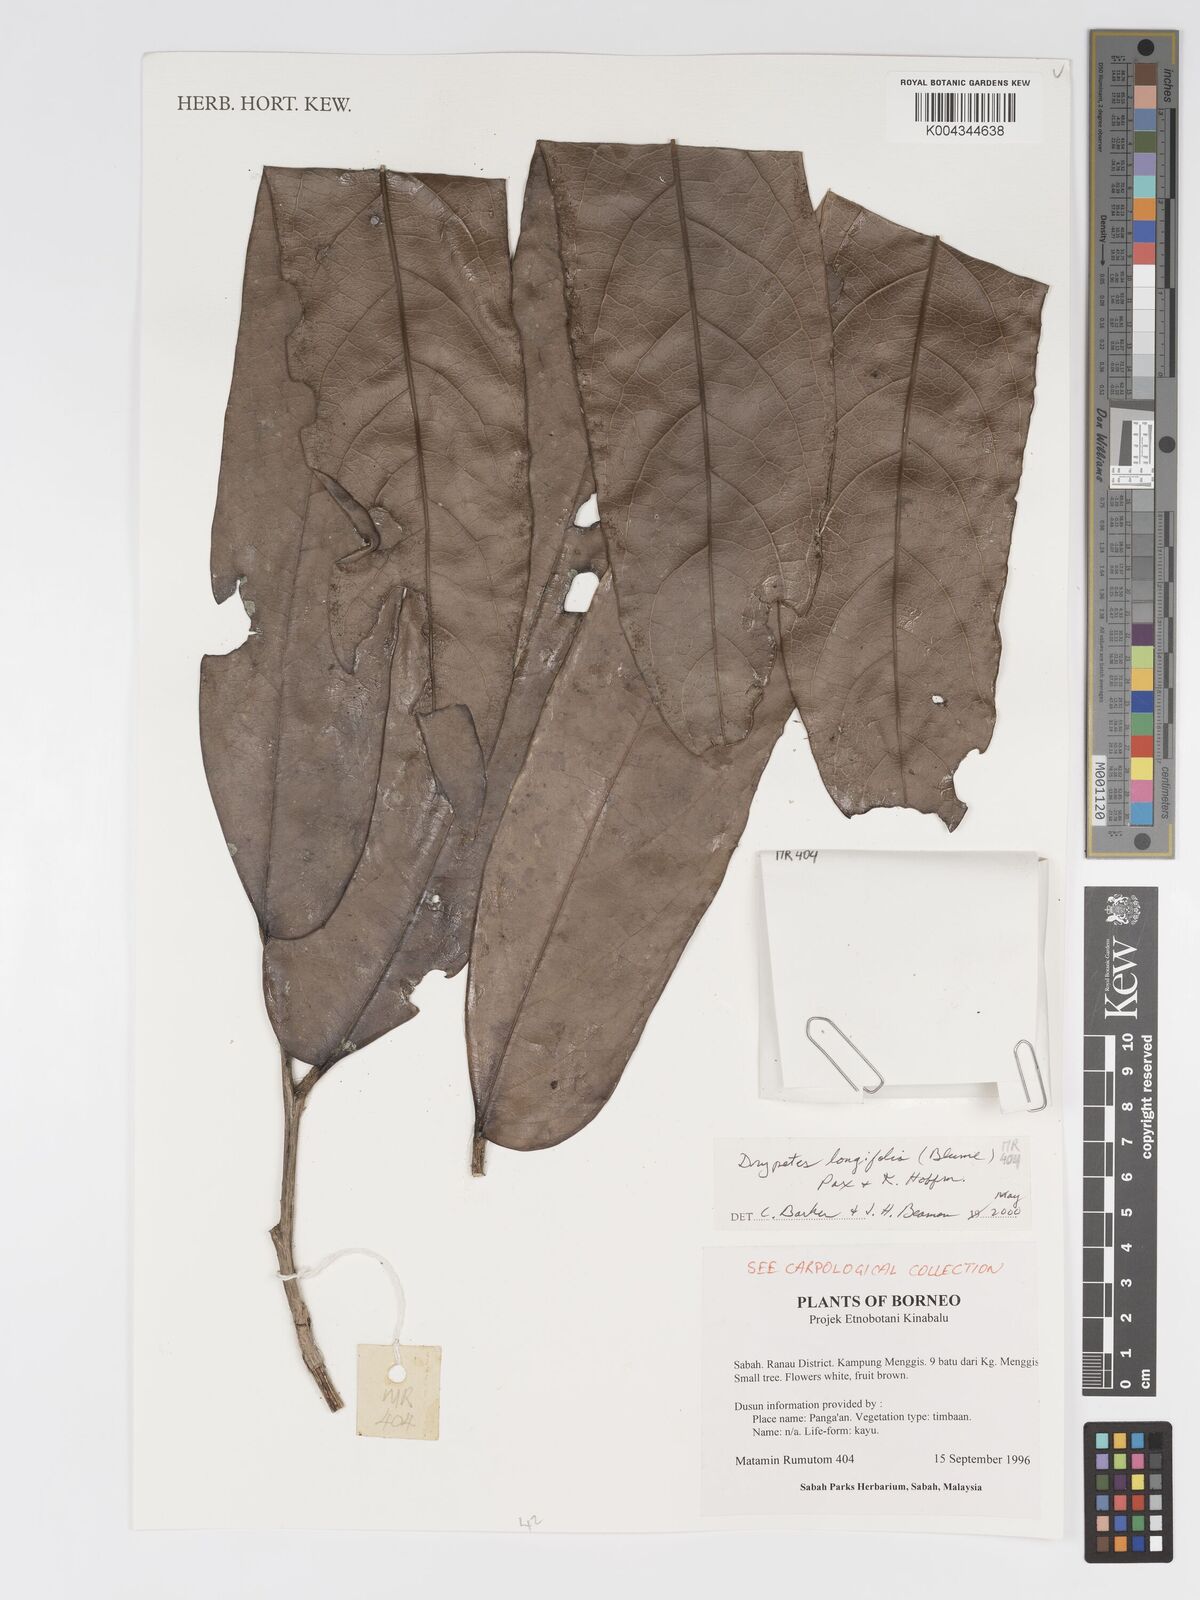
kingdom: Plantae
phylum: Tracheophyta
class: Magnoliopsida
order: Malpighiales
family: Putranjivaceae
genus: Drypetes
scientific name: Drypetes longifolia
